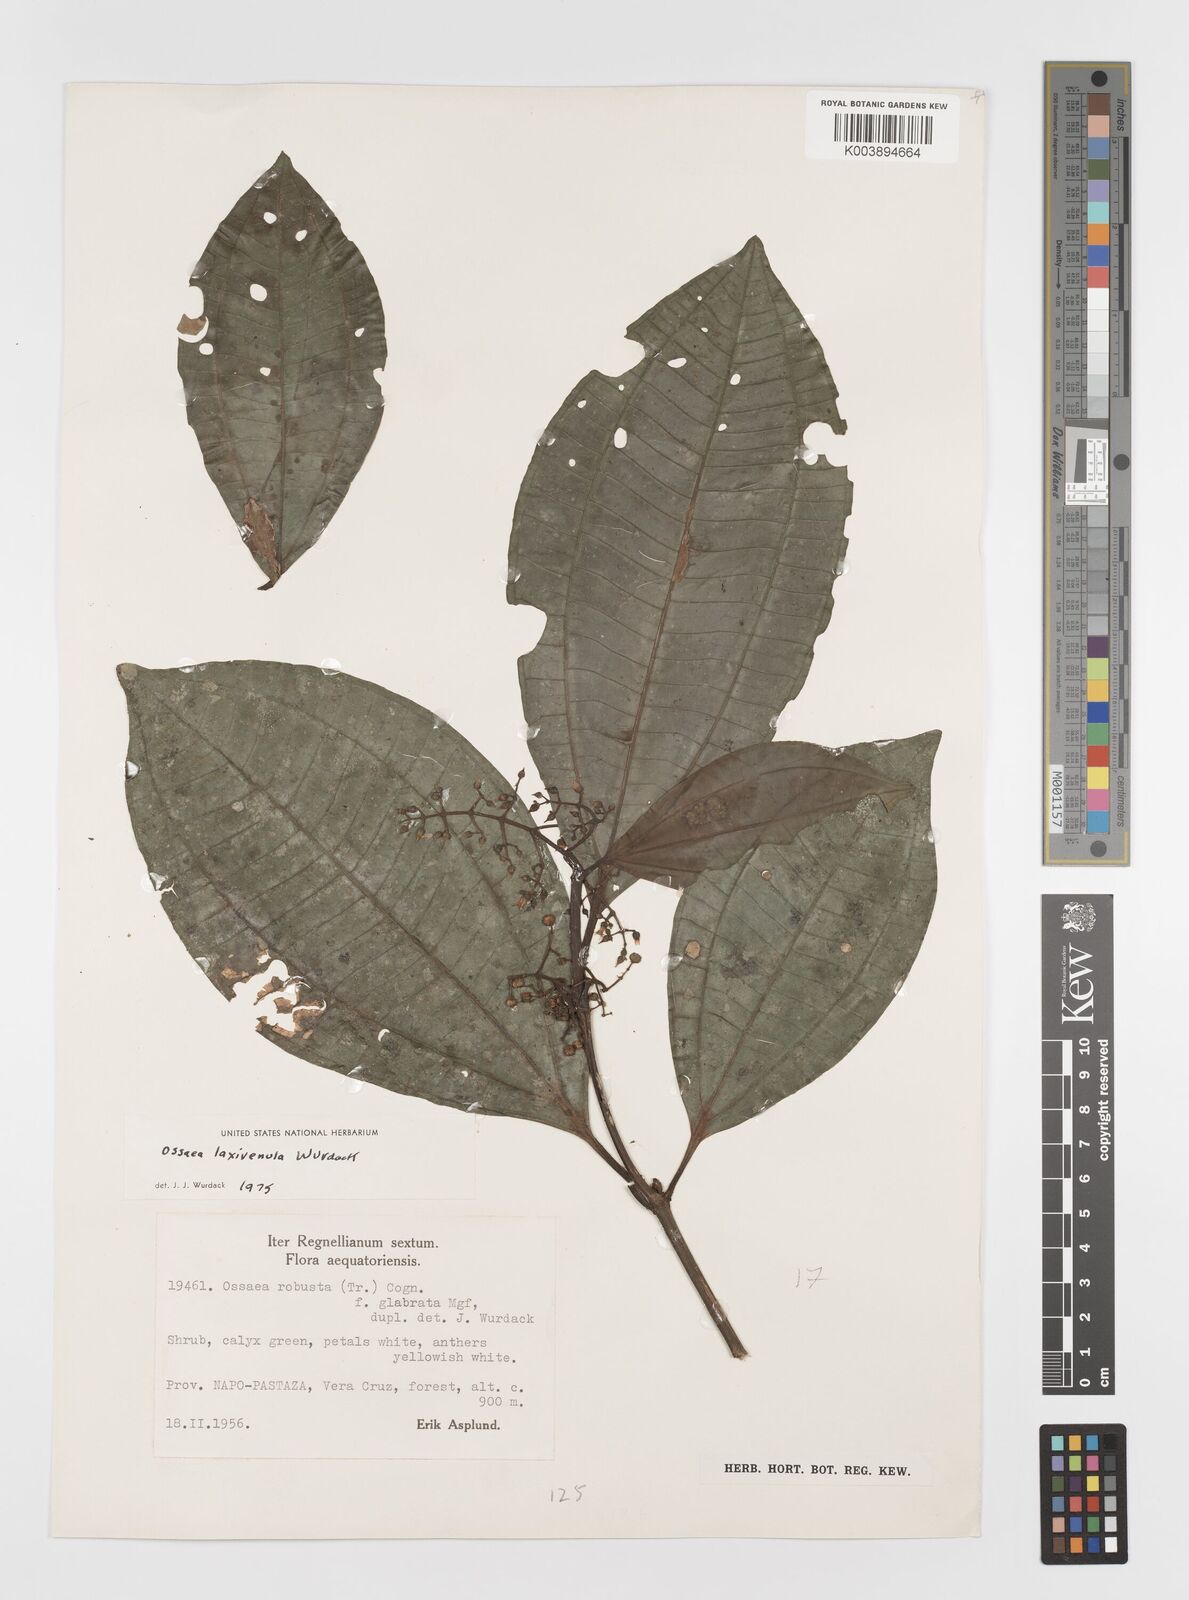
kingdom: Plantae
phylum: Tracheophyta
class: Magnoliopsida
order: Myrtales
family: Melastomataceae
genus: Miconia
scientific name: Miconia laxivenula
